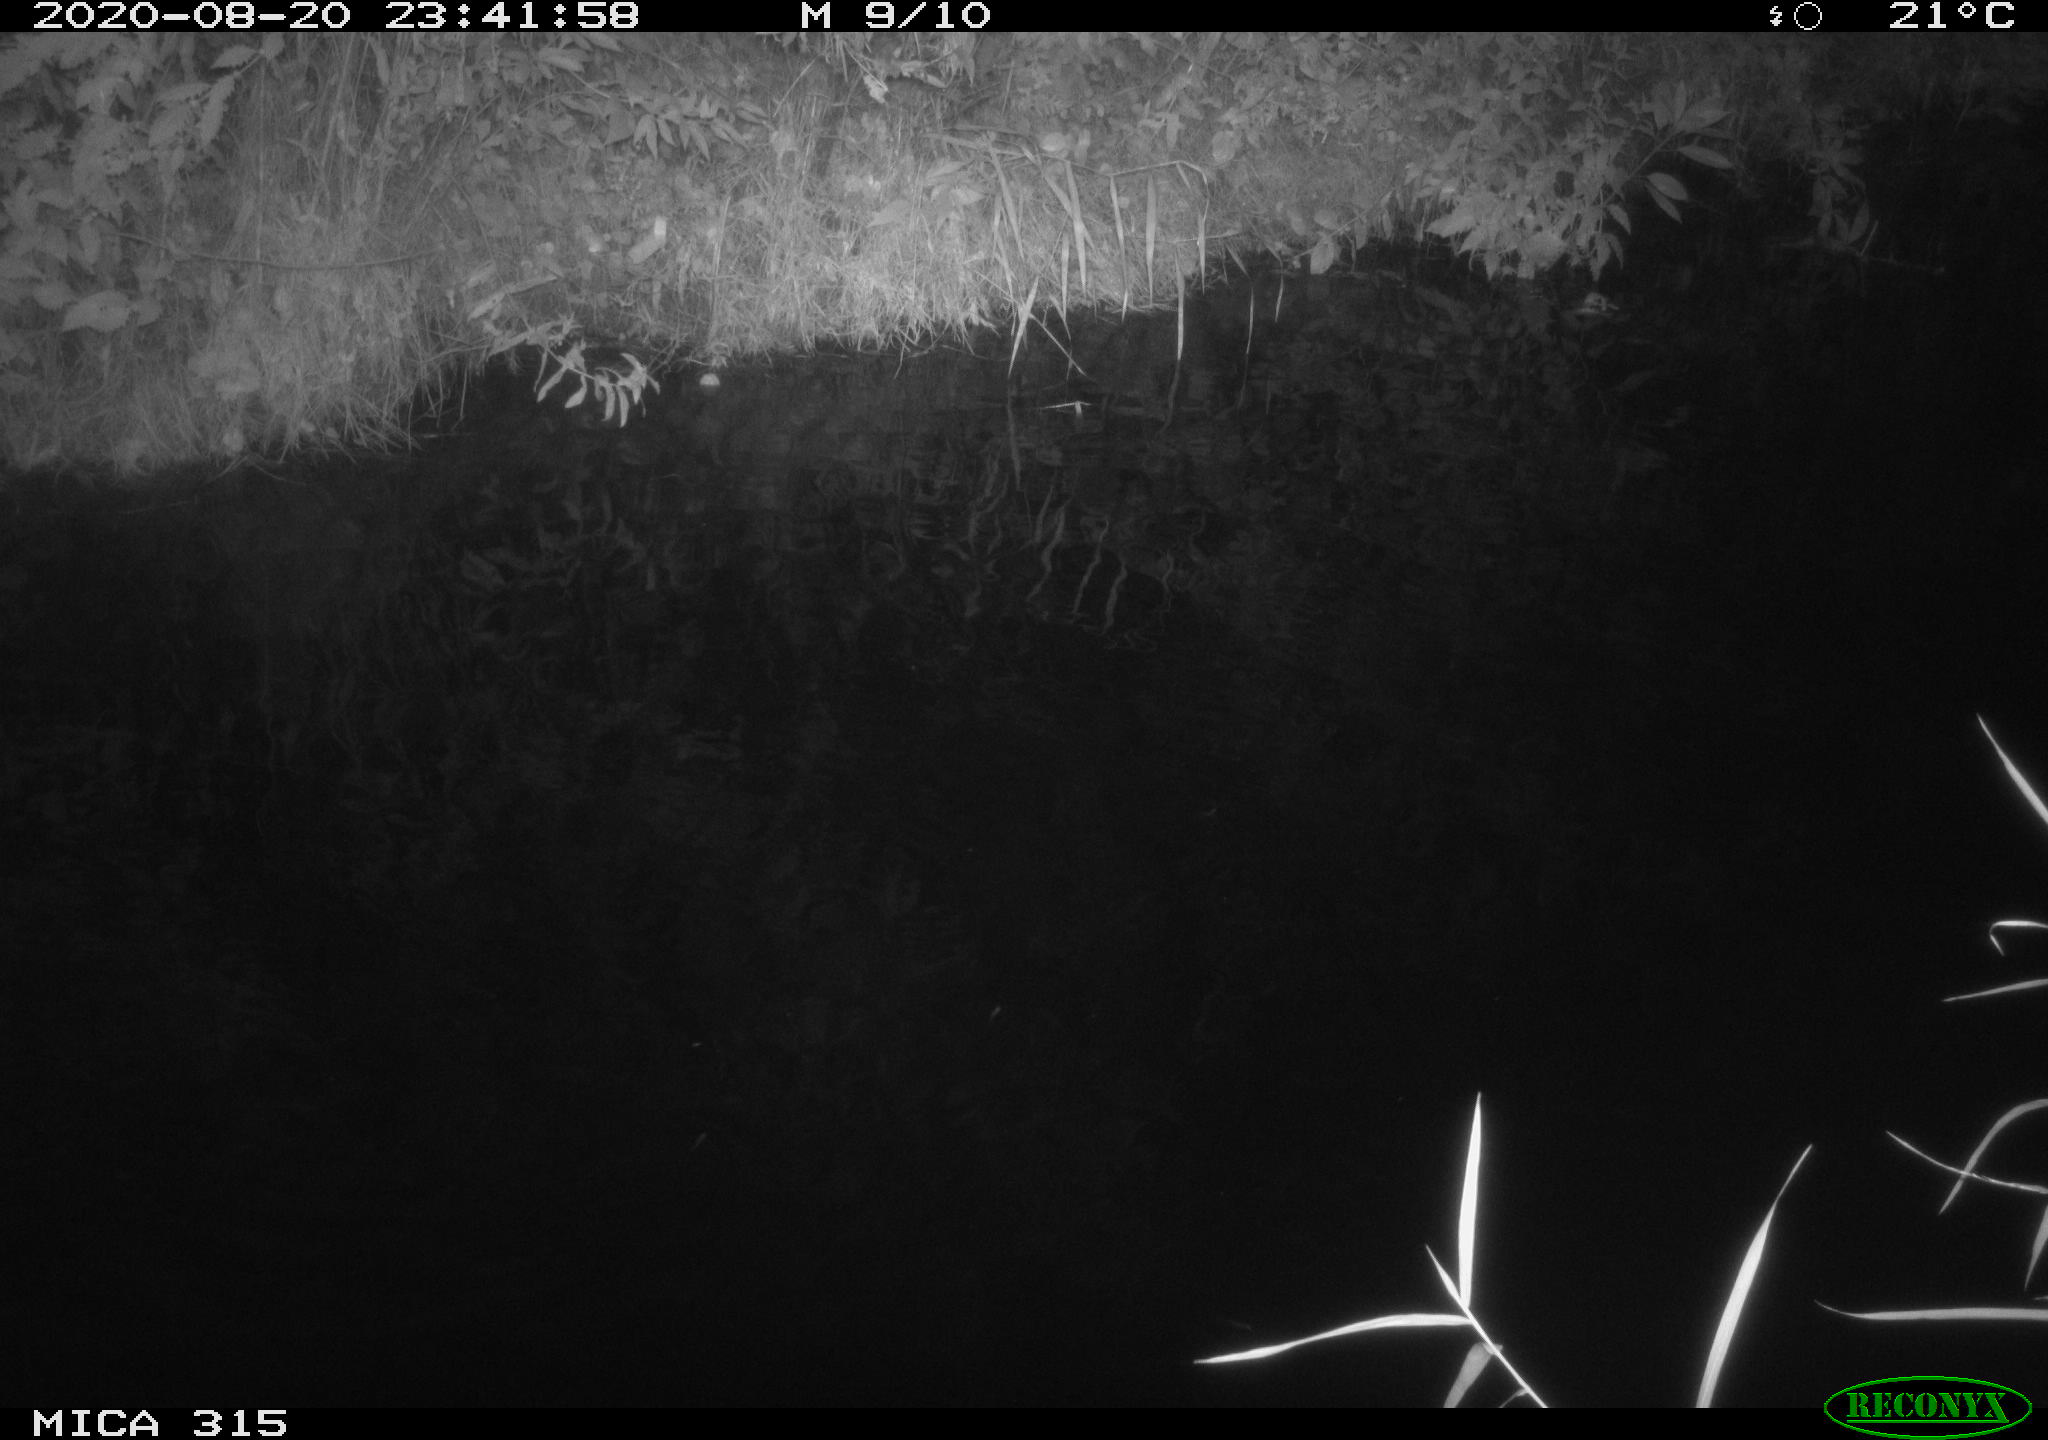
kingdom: Animalia
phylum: Chordata
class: Aves
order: Anseriformes
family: Anatidae
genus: Anas
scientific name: Anas platyrhynchos
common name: Mallard
